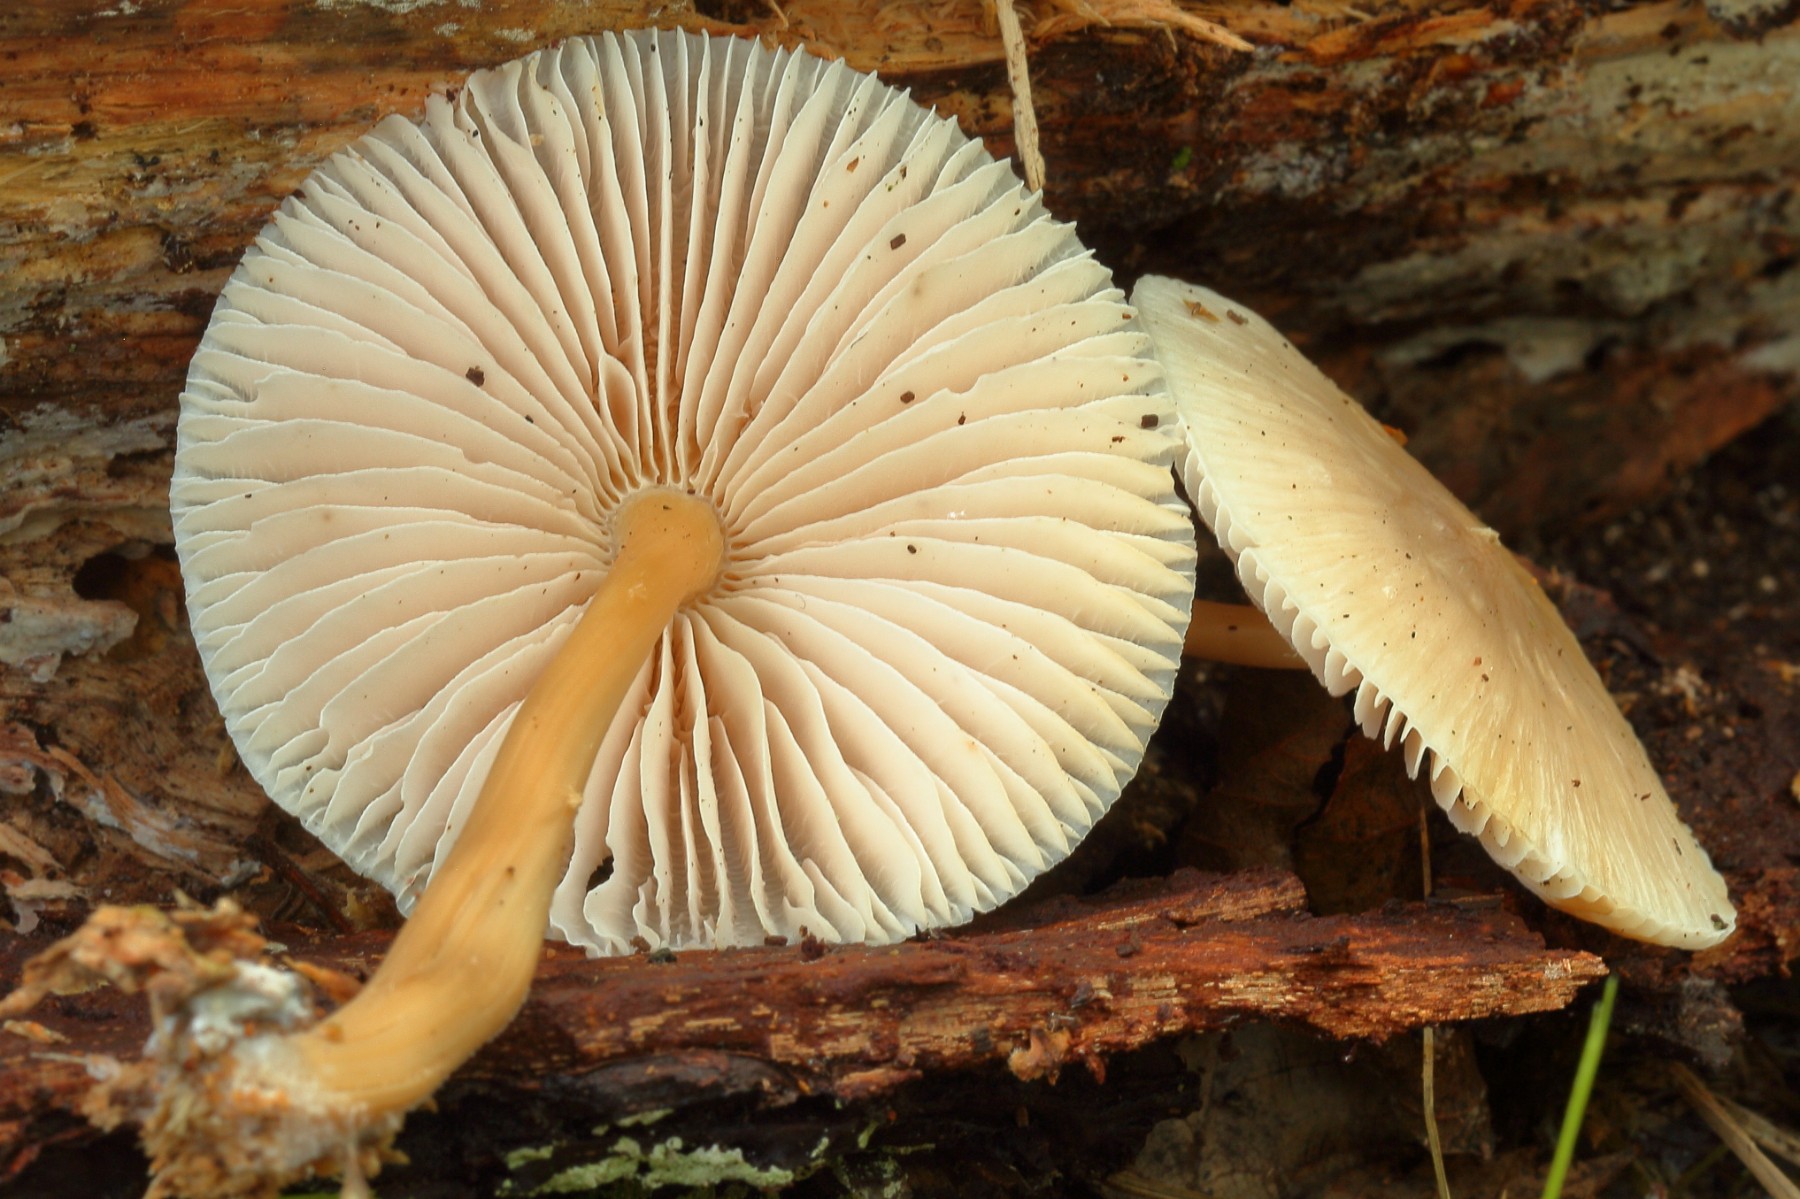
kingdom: Fungi
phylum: Basidiomycota
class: Agaricomycetes
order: Agaricales
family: Mycenaceae
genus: Mycena
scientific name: Mycena galericulata
